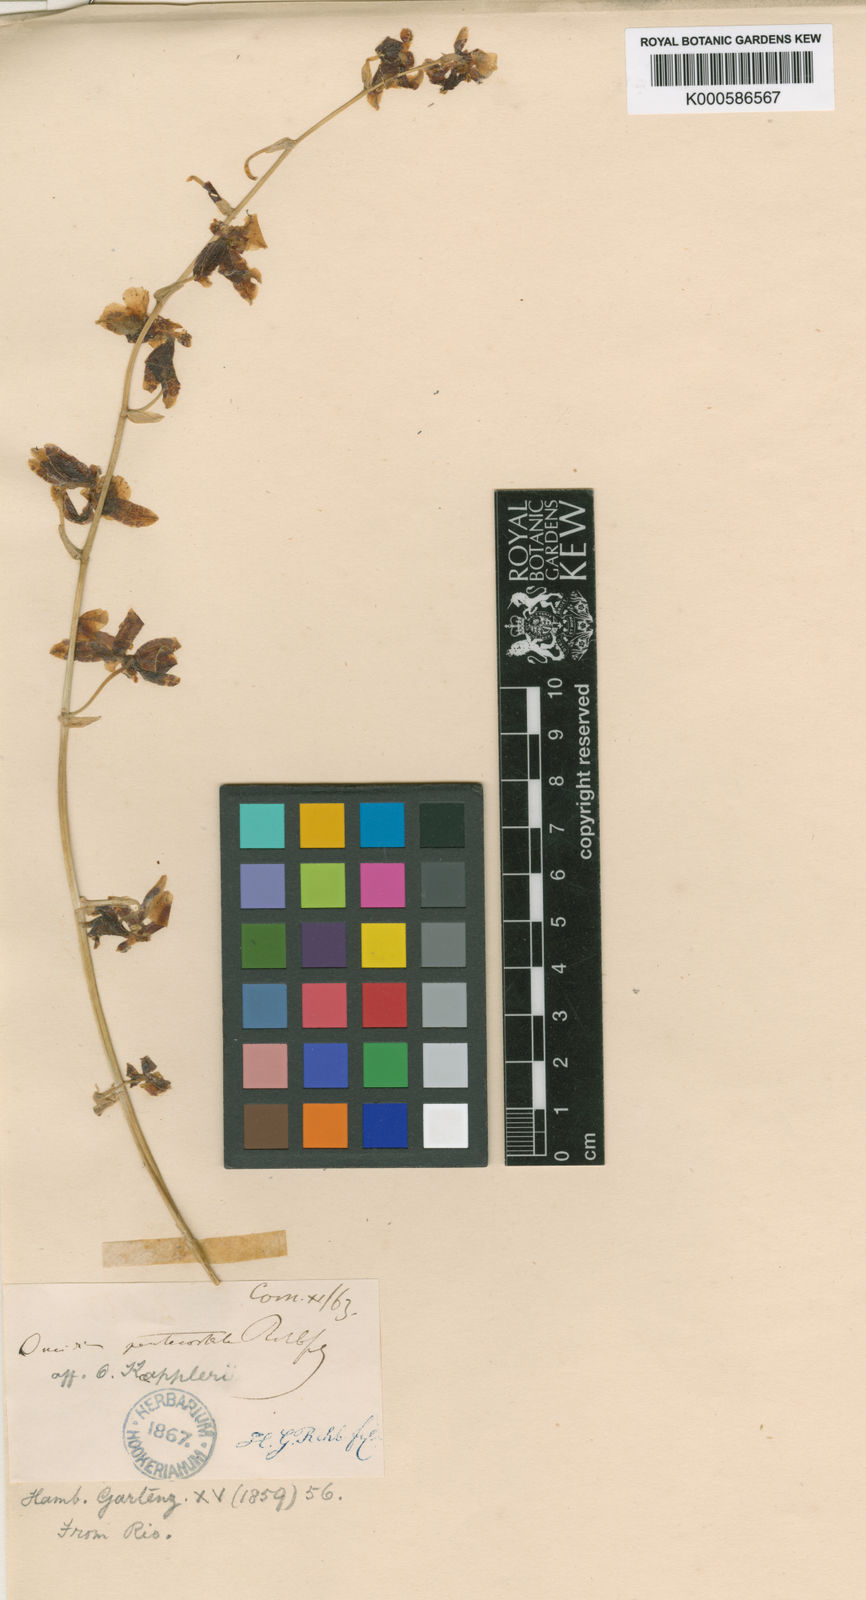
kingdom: Plantae
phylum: Tracheophyta
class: Liliopsida
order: Asparagales
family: Orchidaceae
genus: Oncidium
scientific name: Oncidium baueri
